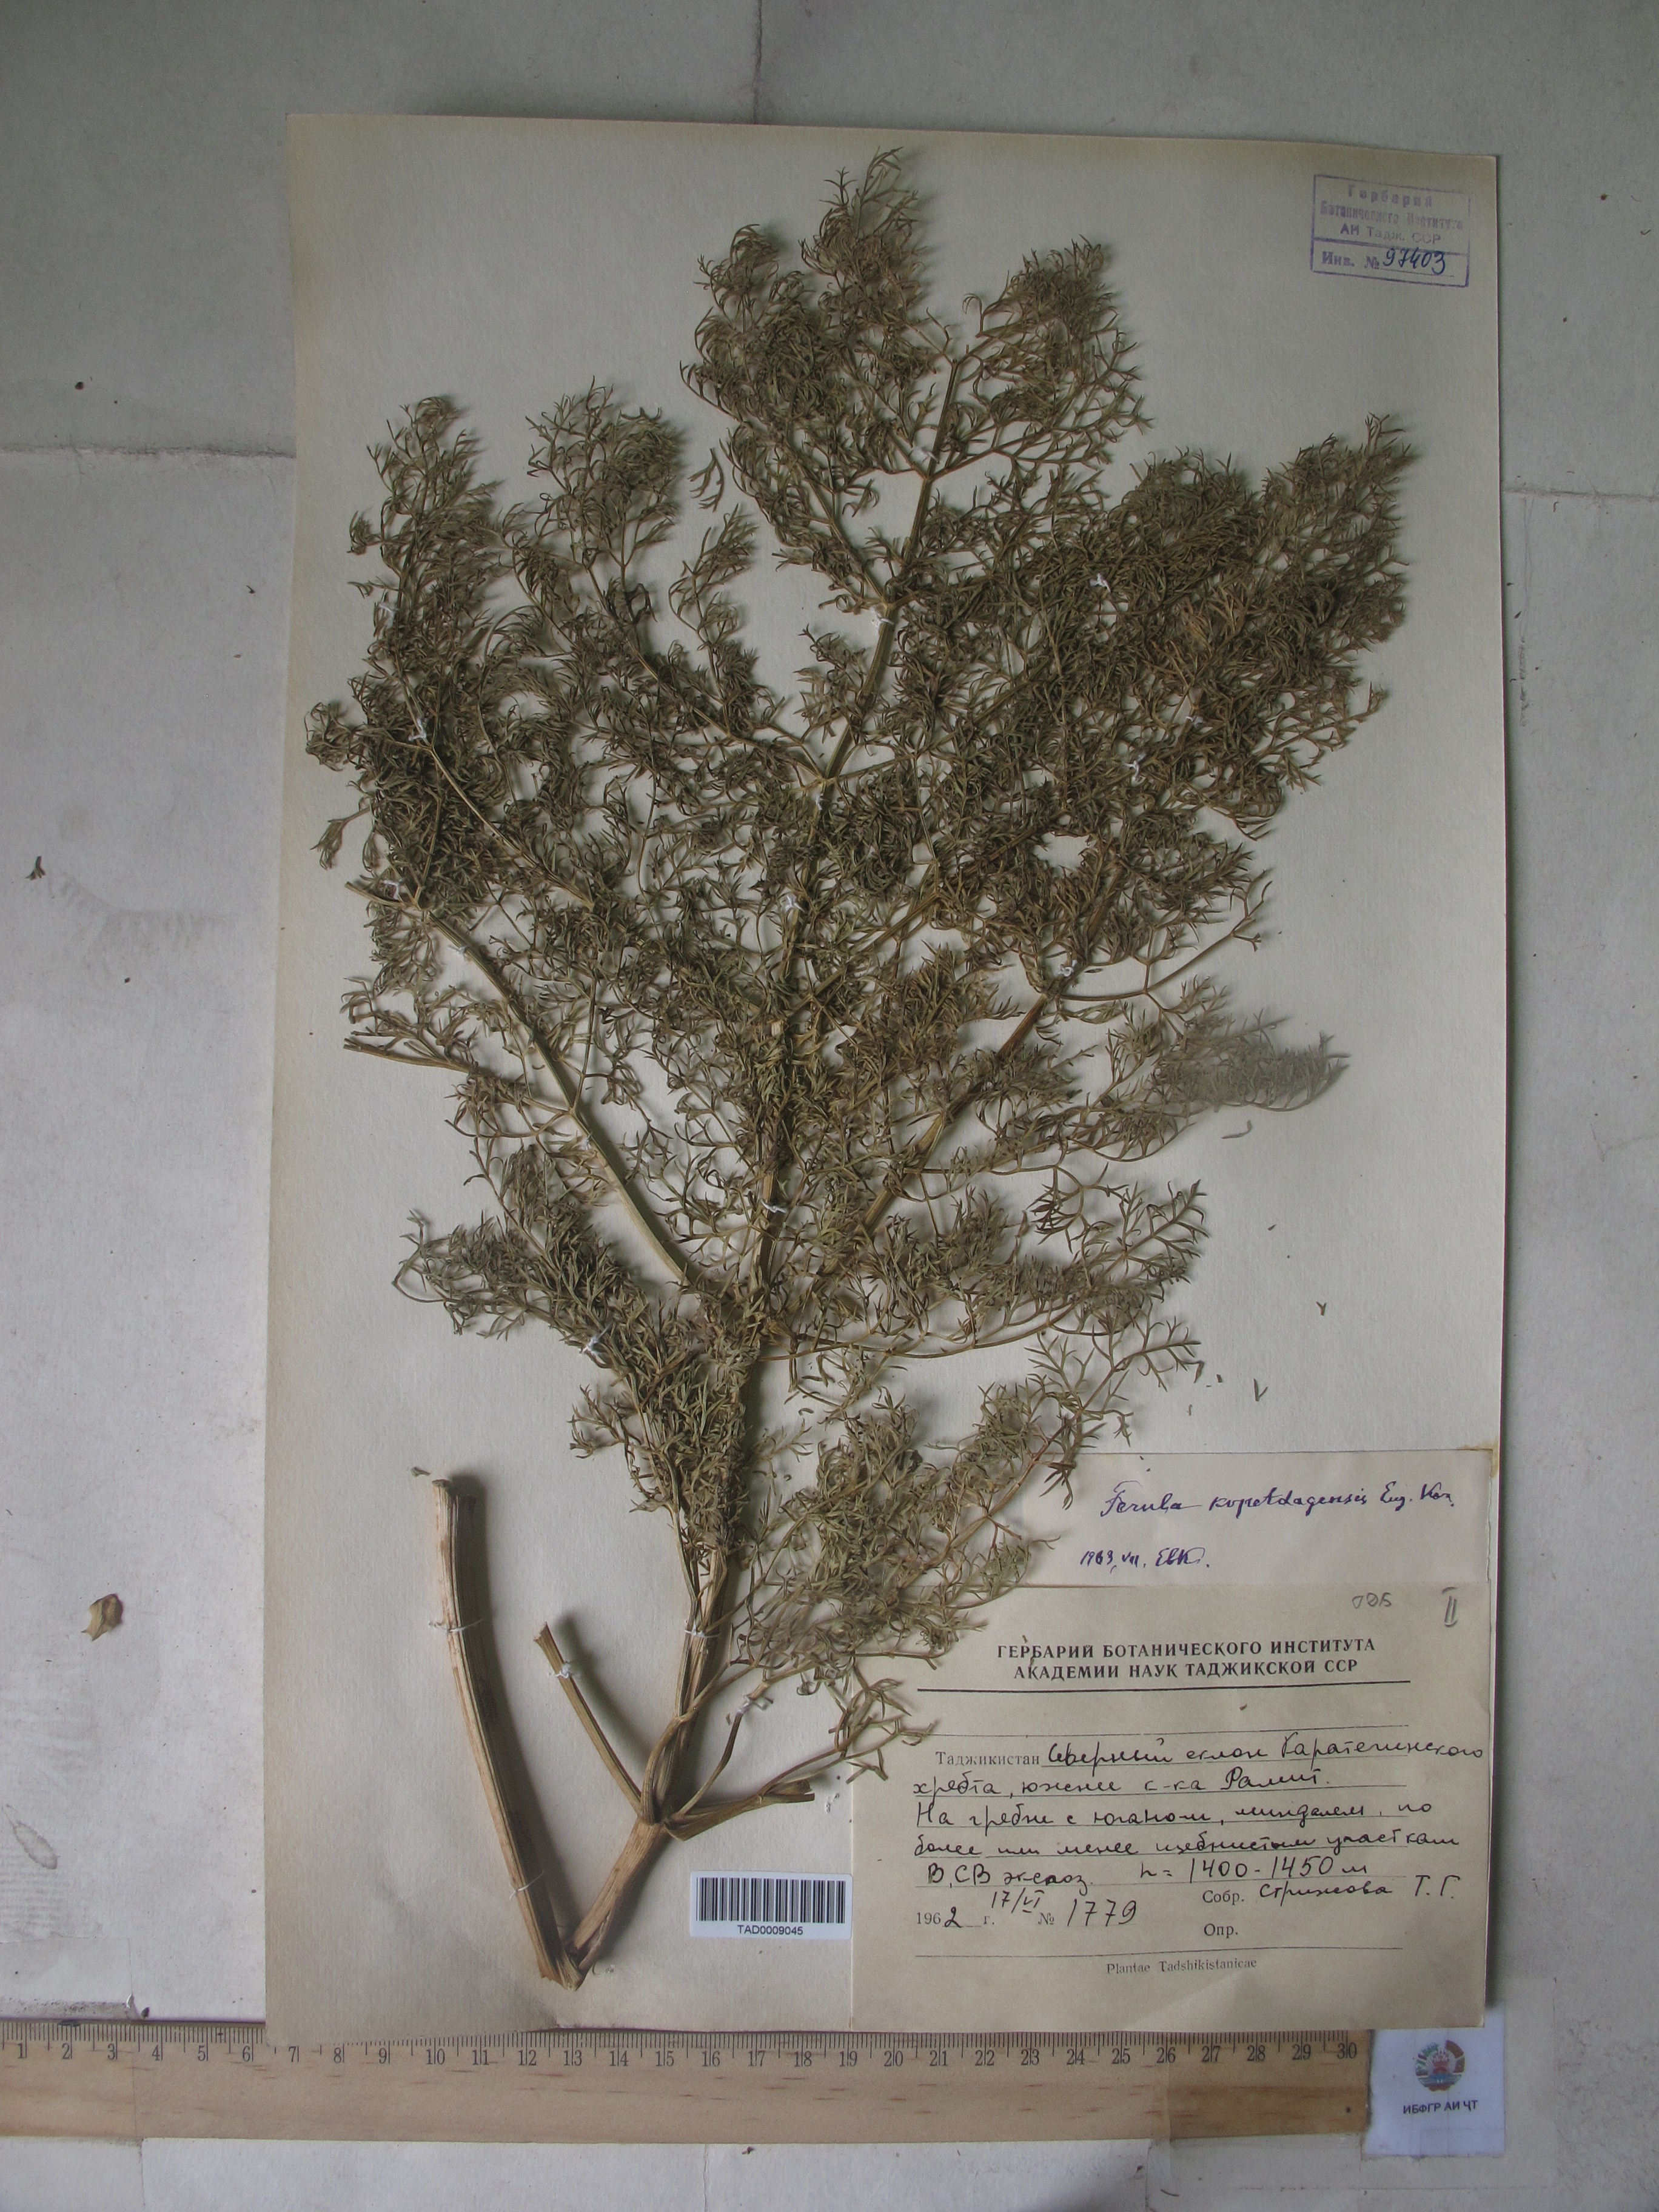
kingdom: Plantae
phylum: Tracheophyta
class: Magnoliopsida
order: Apiales
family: Apiaceae
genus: Ferula
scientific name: Ferula ovina
